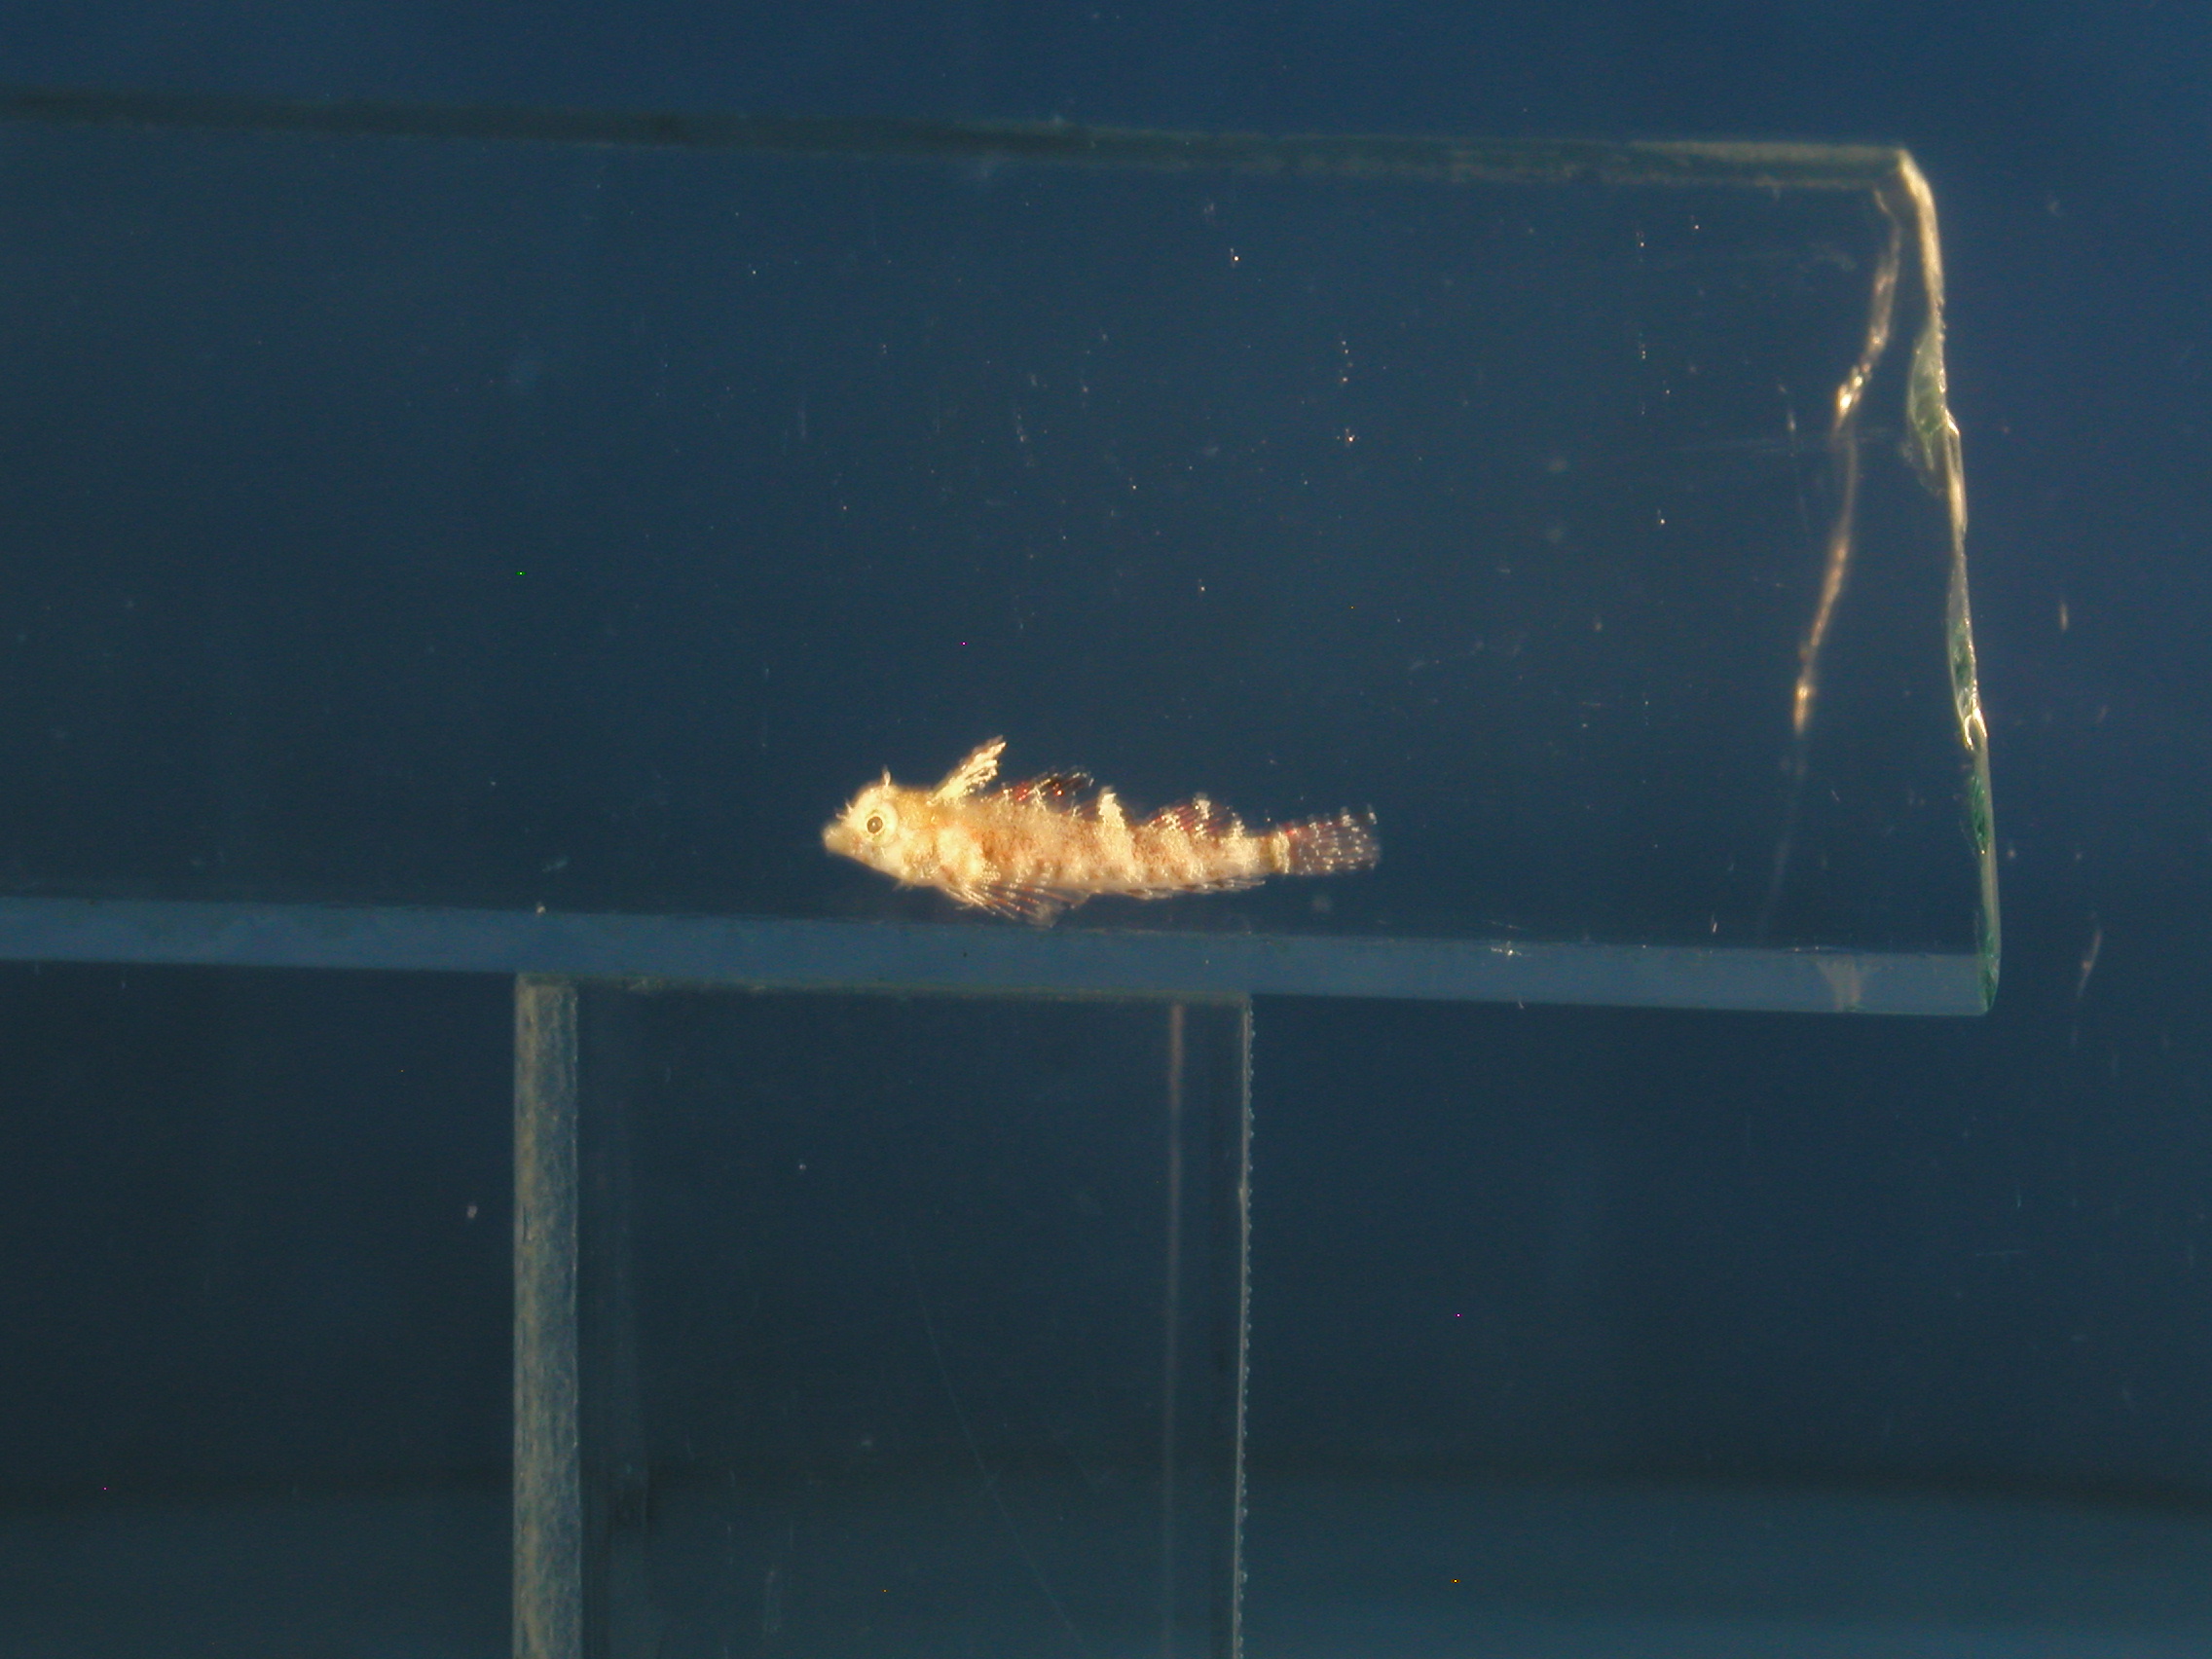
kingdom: Animalia
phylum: Chordata
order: Perciformes
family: Tripterygiidae
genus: Enneapterygius
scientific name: Enneapterygius tutuilae
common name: High-hat triplefin
